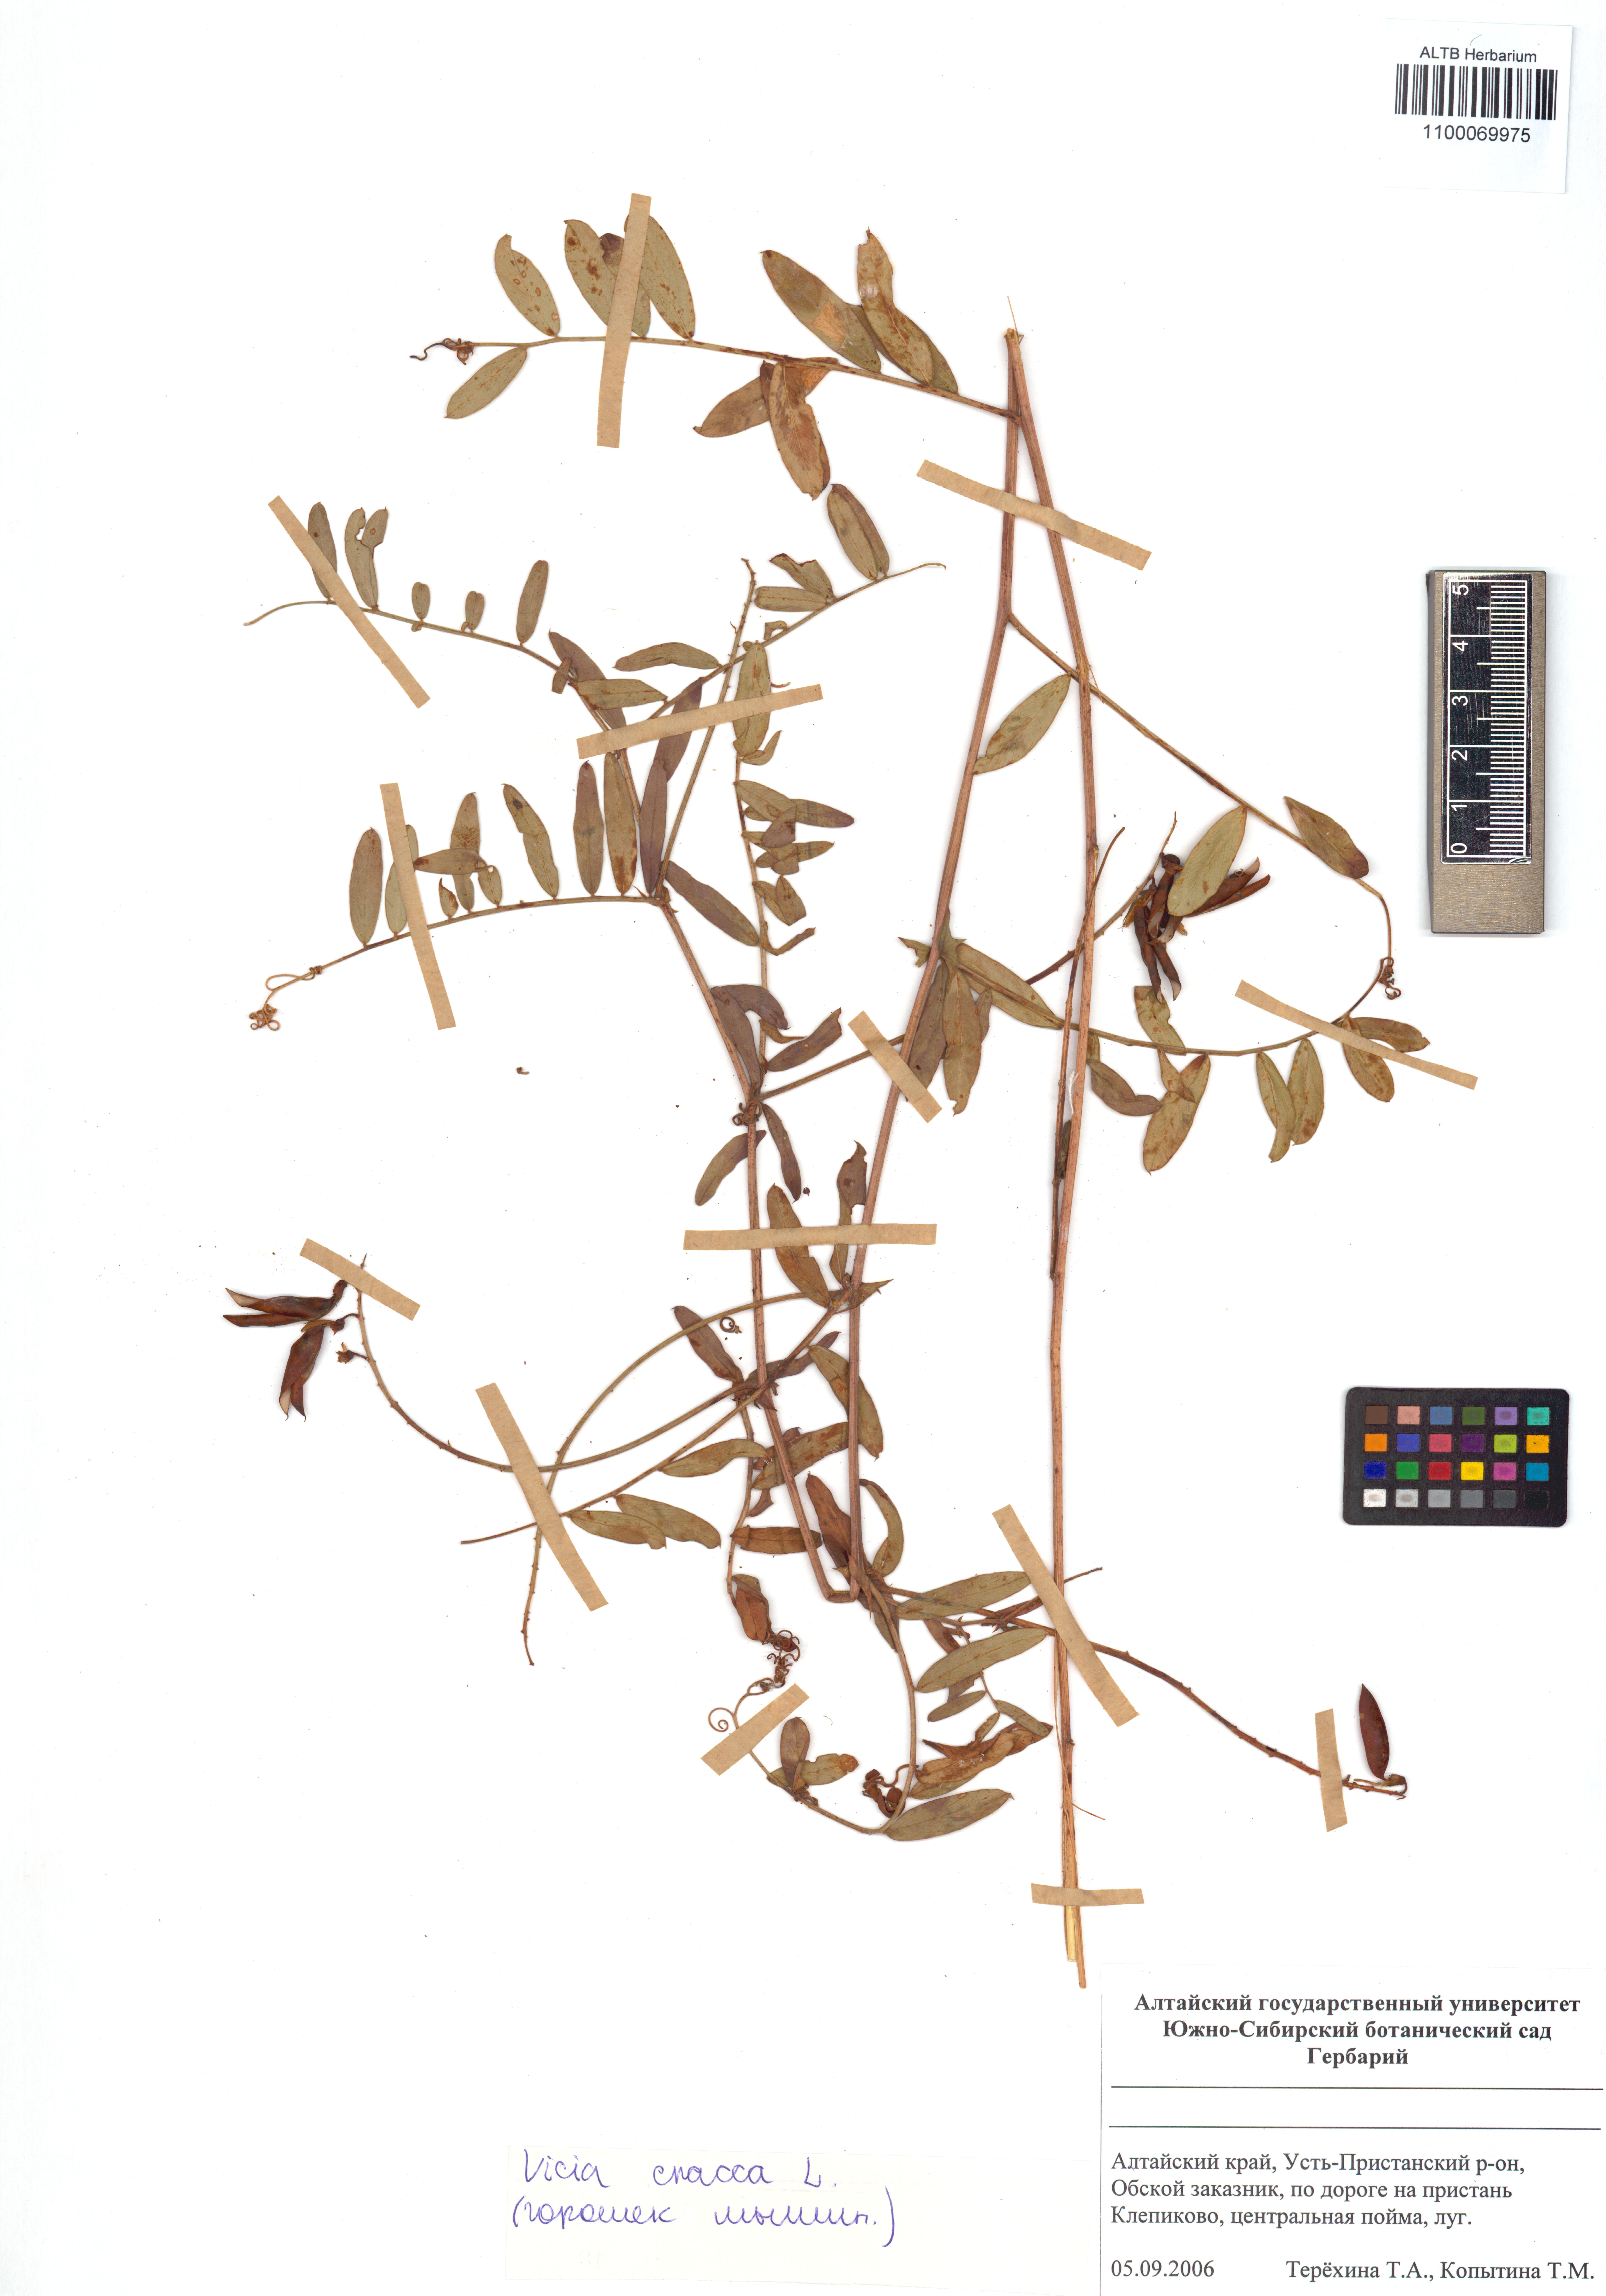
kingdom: Plantae
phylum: Tracheophyta
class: Magnoliopsida
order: Fabales
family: Fabaceae
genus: Vicia
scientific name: Vicia cracca
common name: Bird vetch
